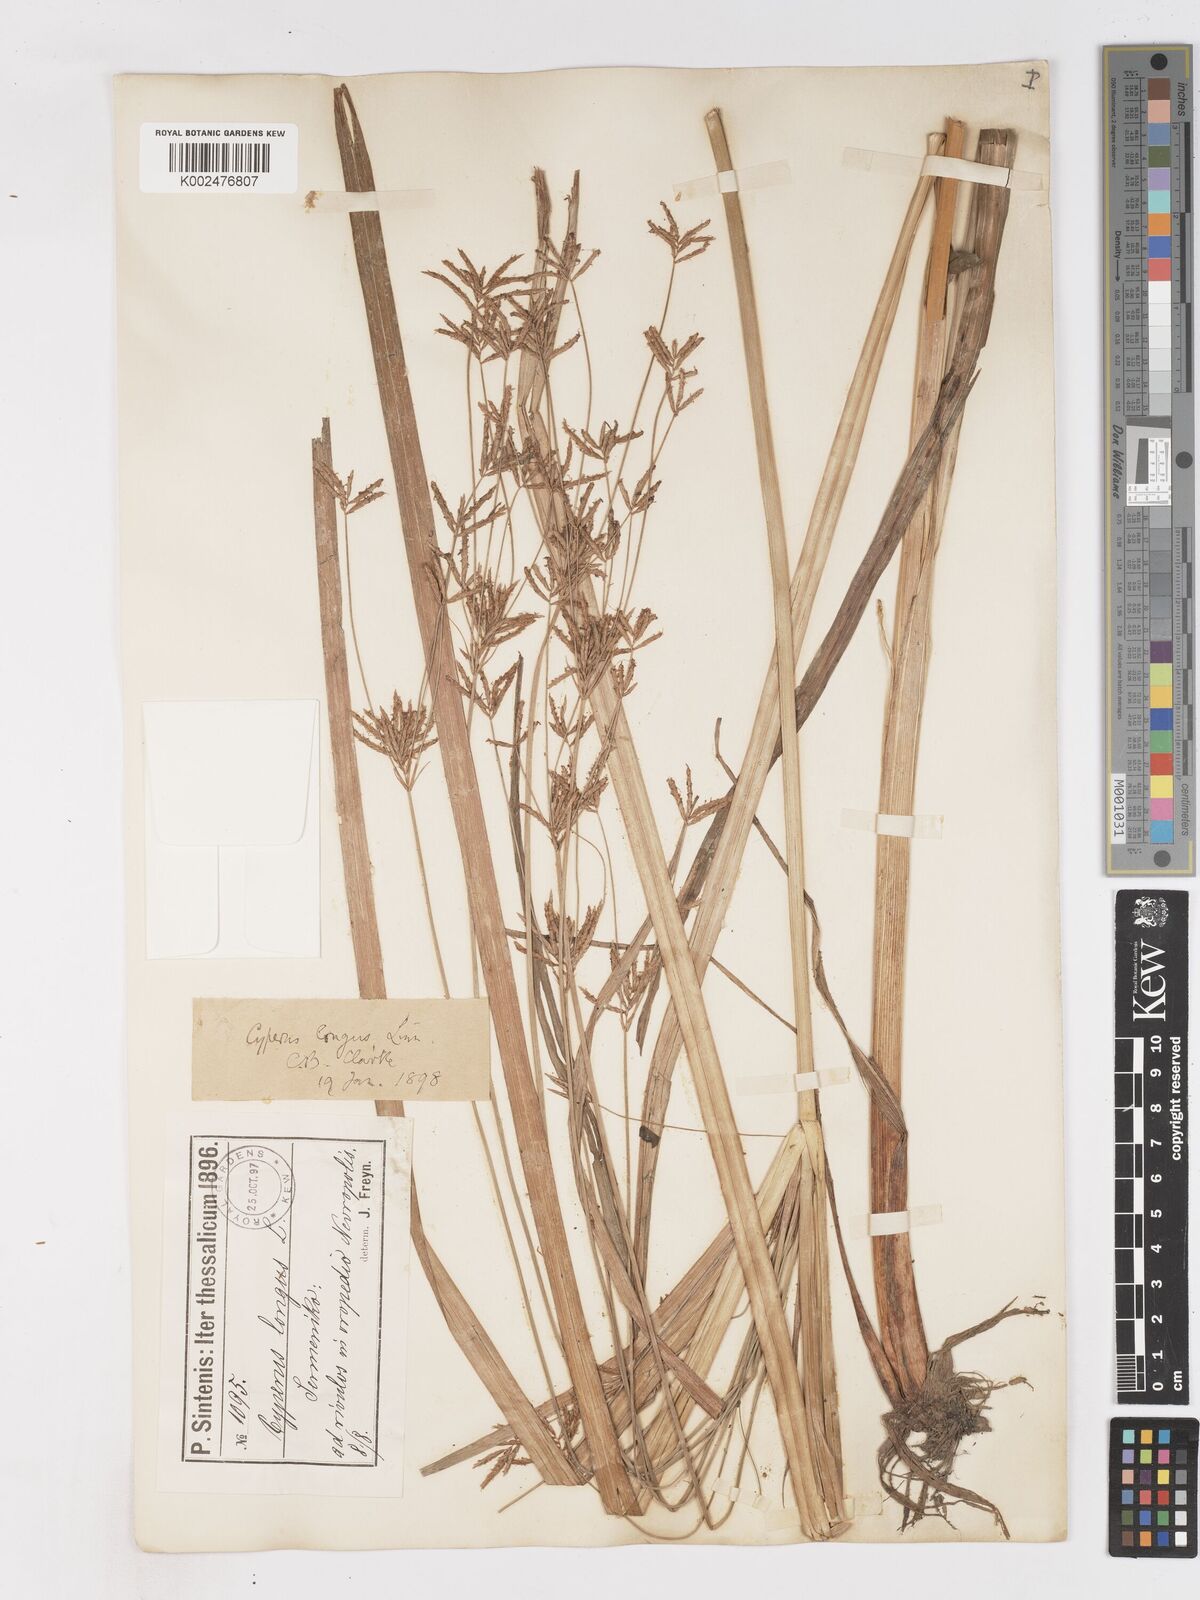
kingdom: Plantae
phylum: Tracheophyta
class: Liliopsida
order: Poales
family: Cyperaceae
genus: Cyperus
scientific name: Cyperus longus
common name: Galingale
